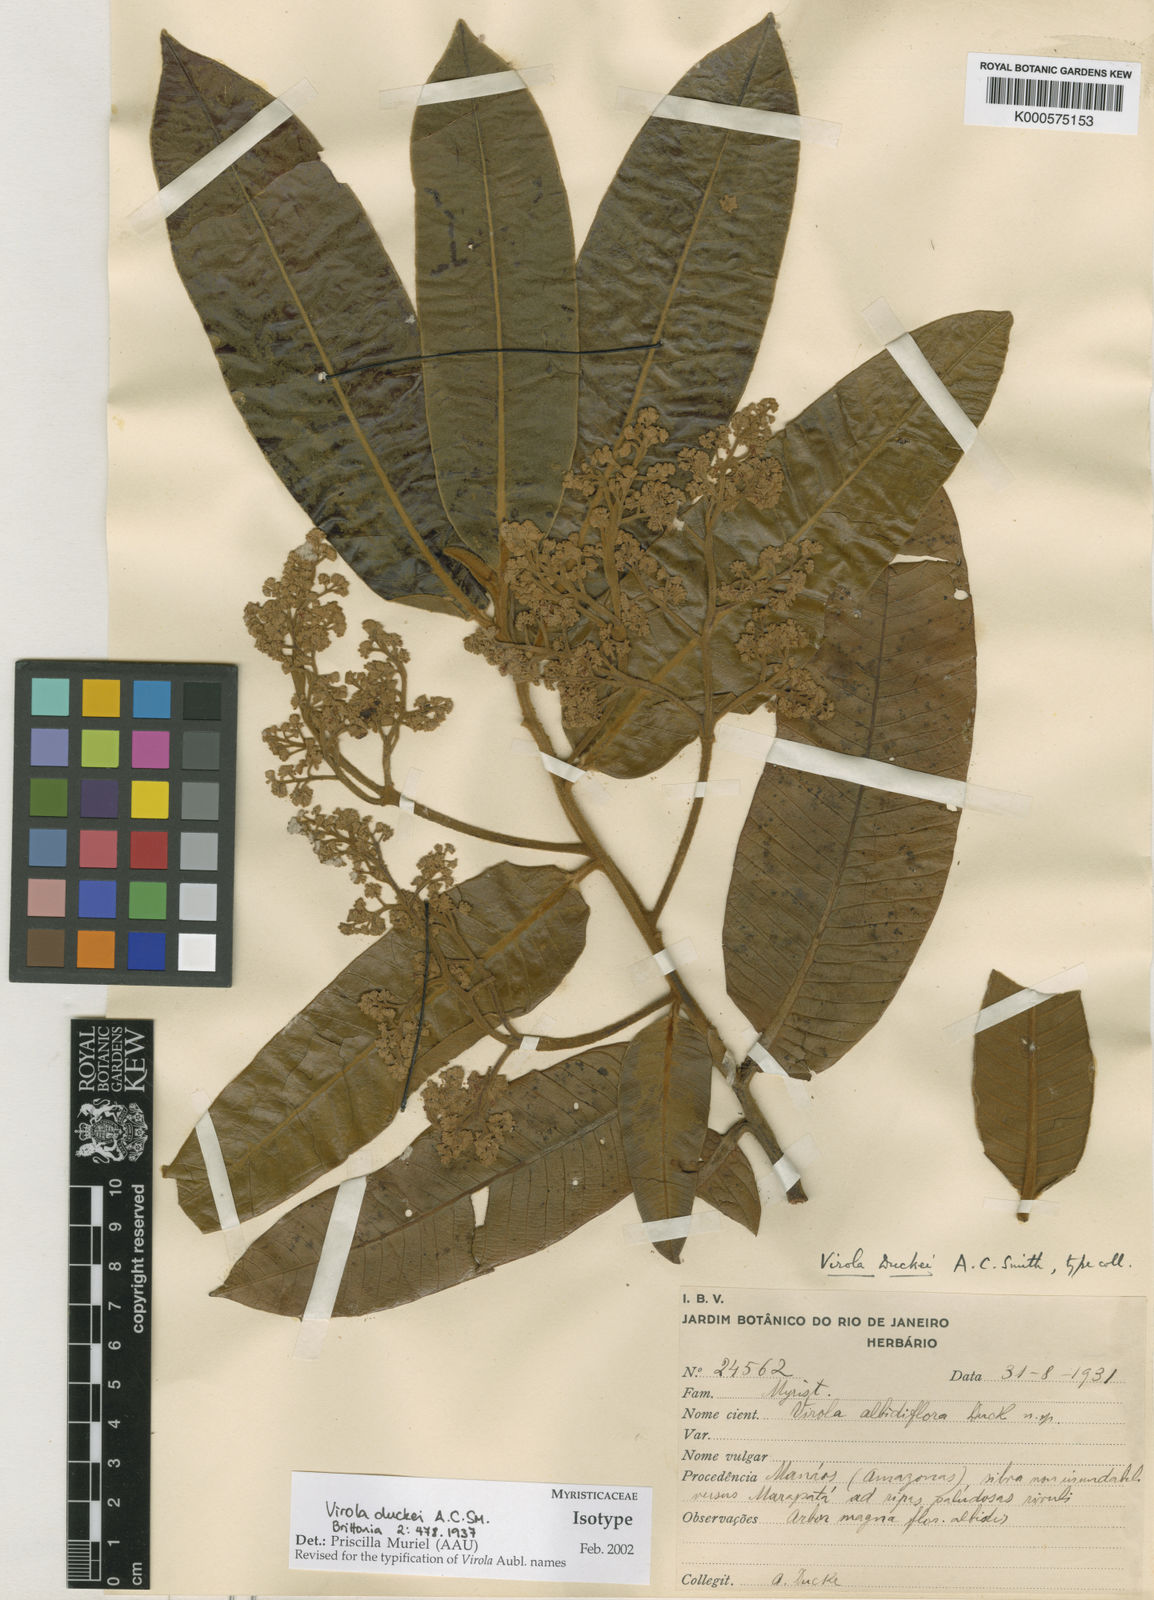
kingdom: Plantae
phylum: Tracheophyta
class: Magnoliopsida
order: Magnoliales
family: Myristicaceae
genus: Virola
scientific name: Virola duckei
